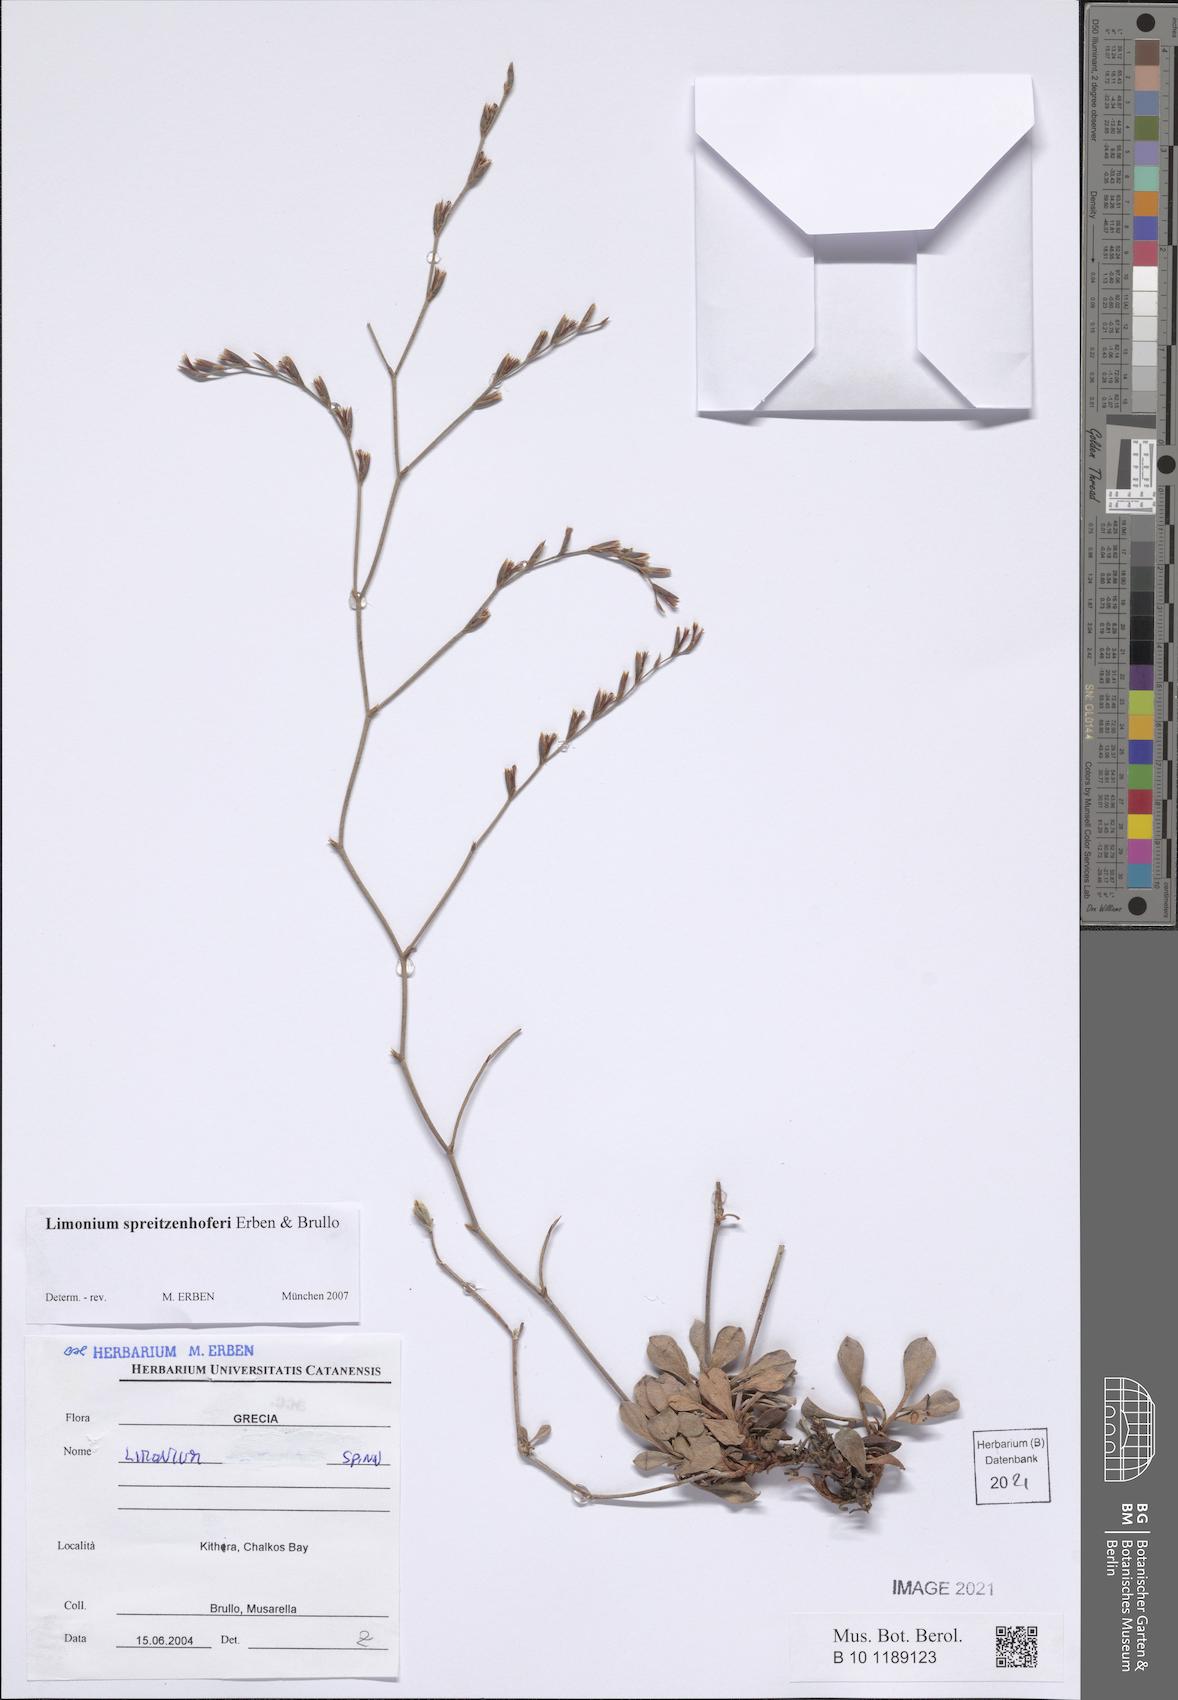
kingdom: Plantae
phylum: Tracheophyta
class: Magnoliopsida
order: Caryophyllales
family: Plumbaginaceae
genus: Limonium
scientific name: Limonium spreitzenhoferi
